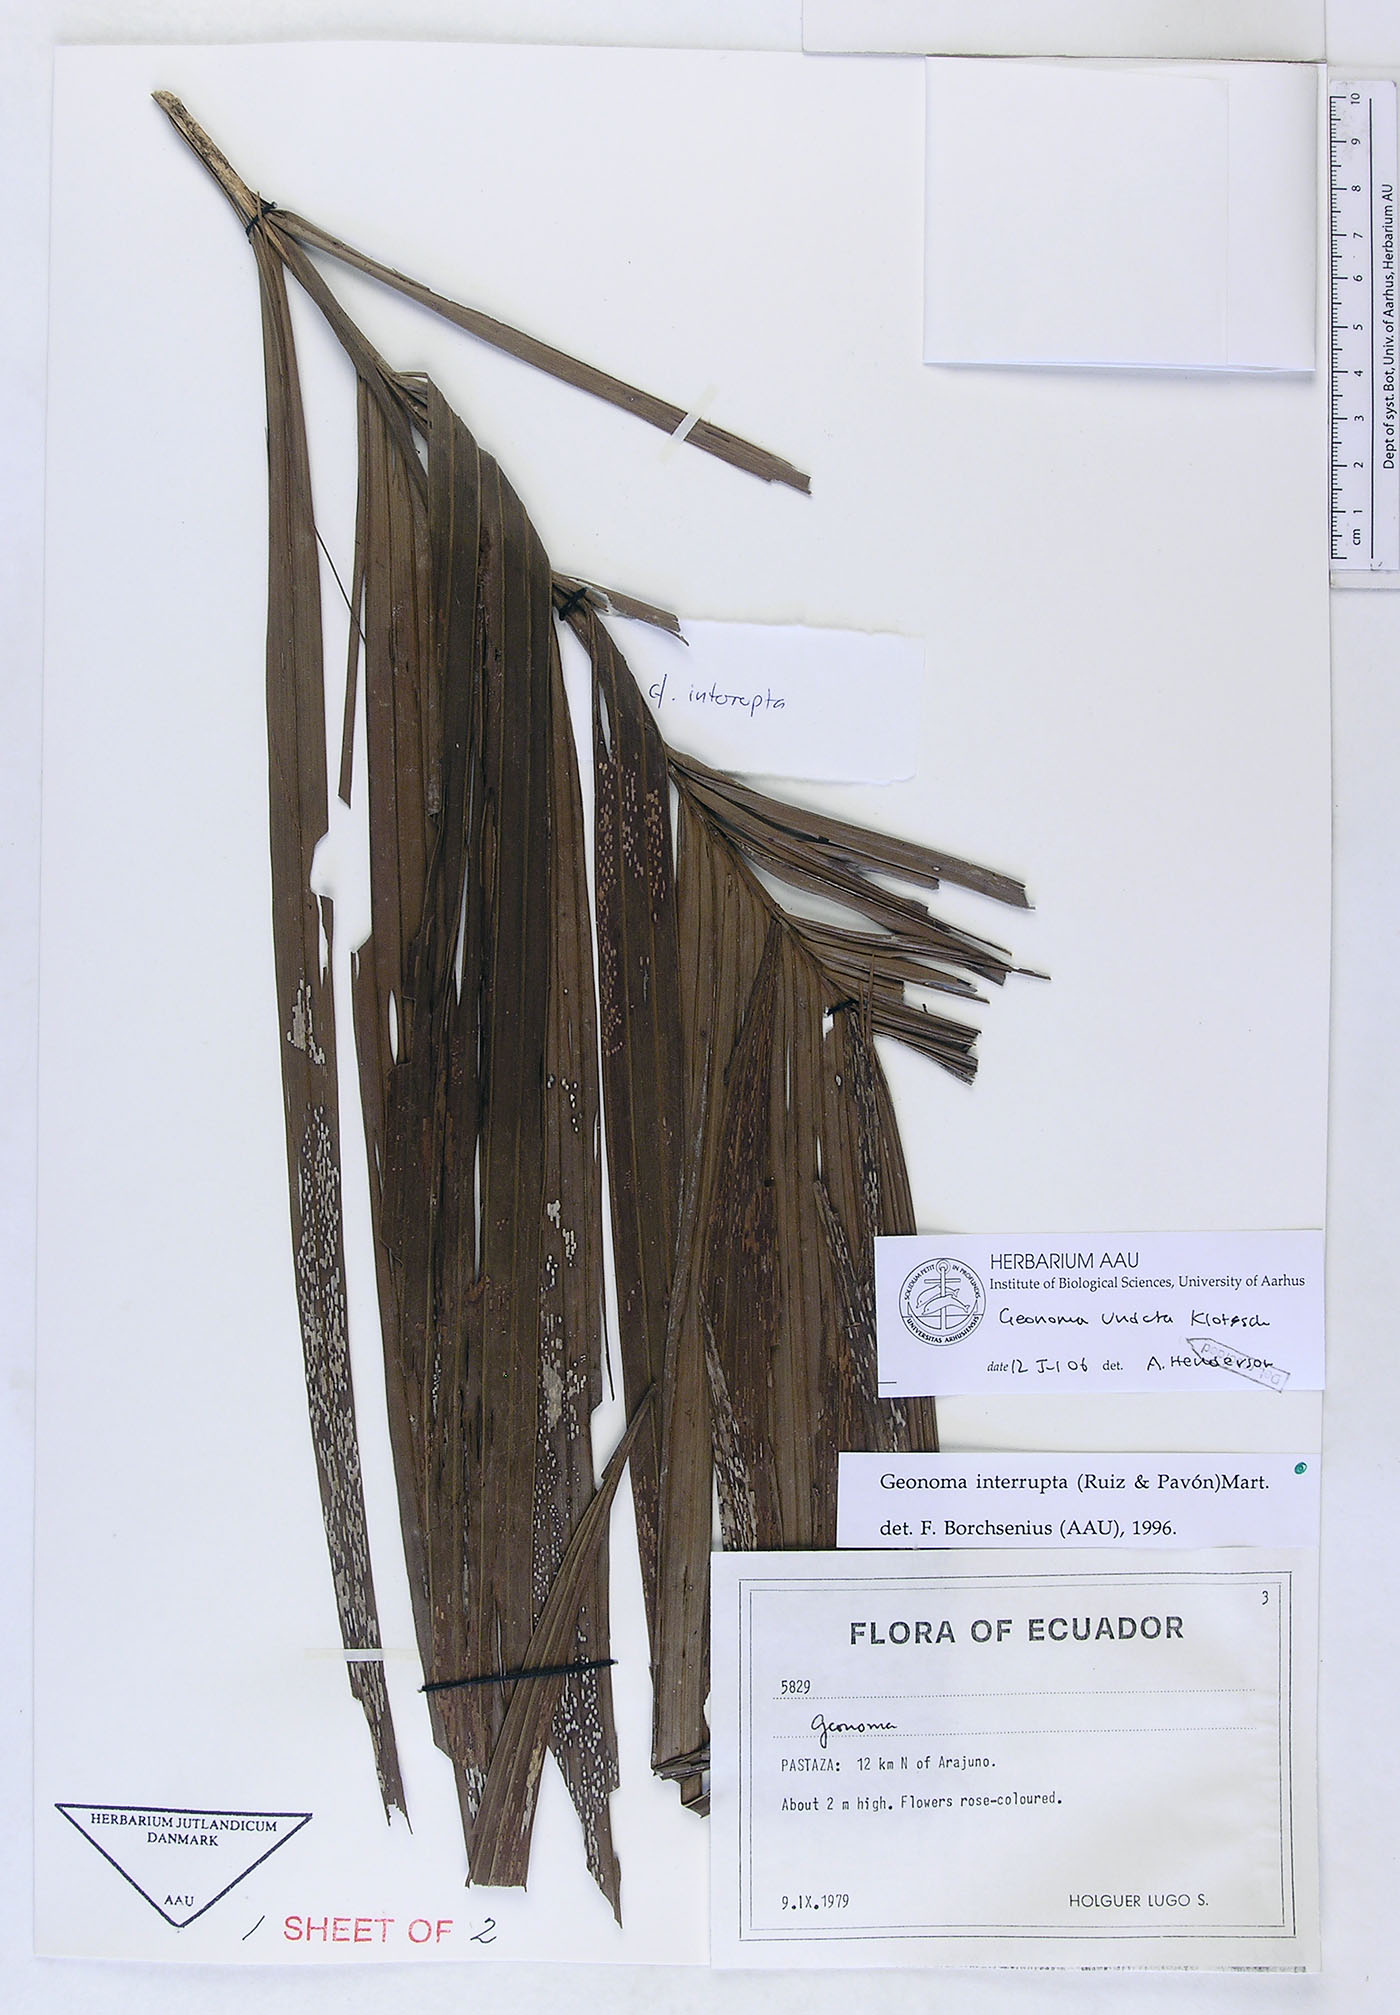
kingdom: Plantae
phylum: Tracheophyta
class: Liliopsida
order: Arecales
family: Arecaceae
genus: Geonoma
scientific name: Geonoma undata
